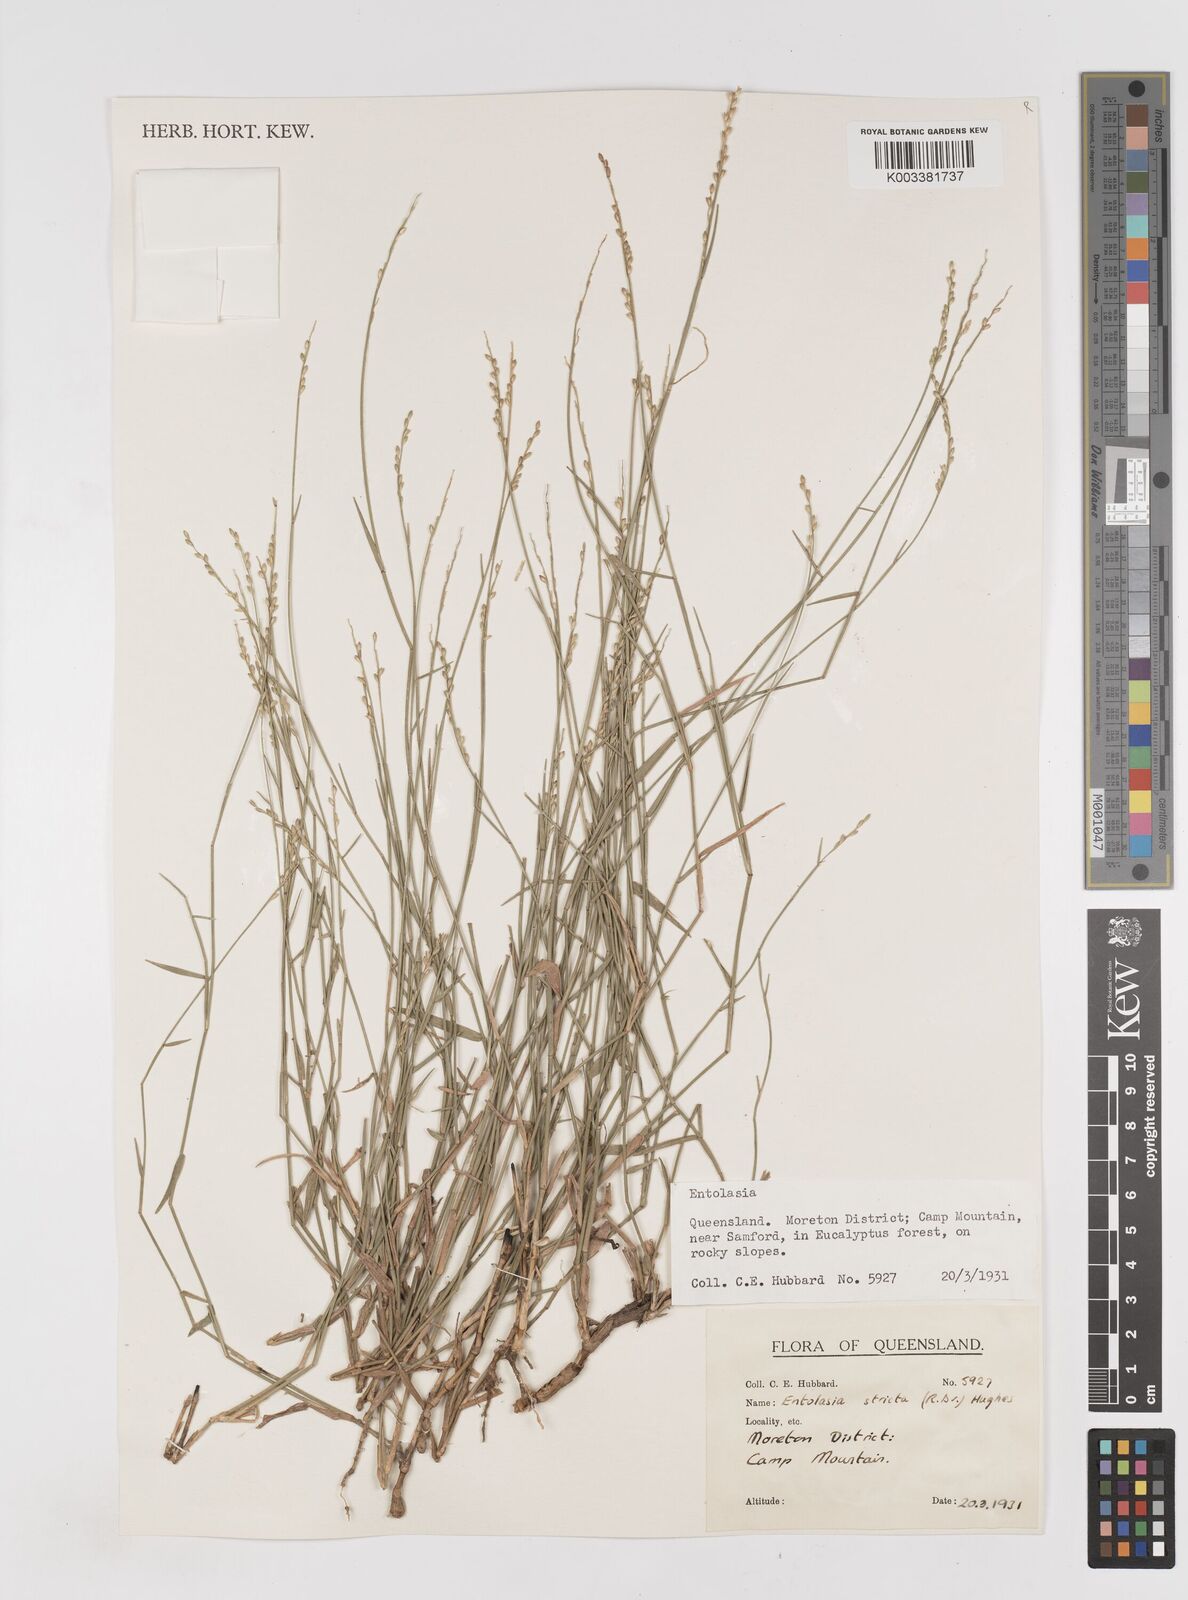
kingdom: Plantae
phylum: Tracheophyta
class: Liliopsida
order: Poales
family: Poaceae
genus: Entolasia
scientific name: Entolasia stricta
